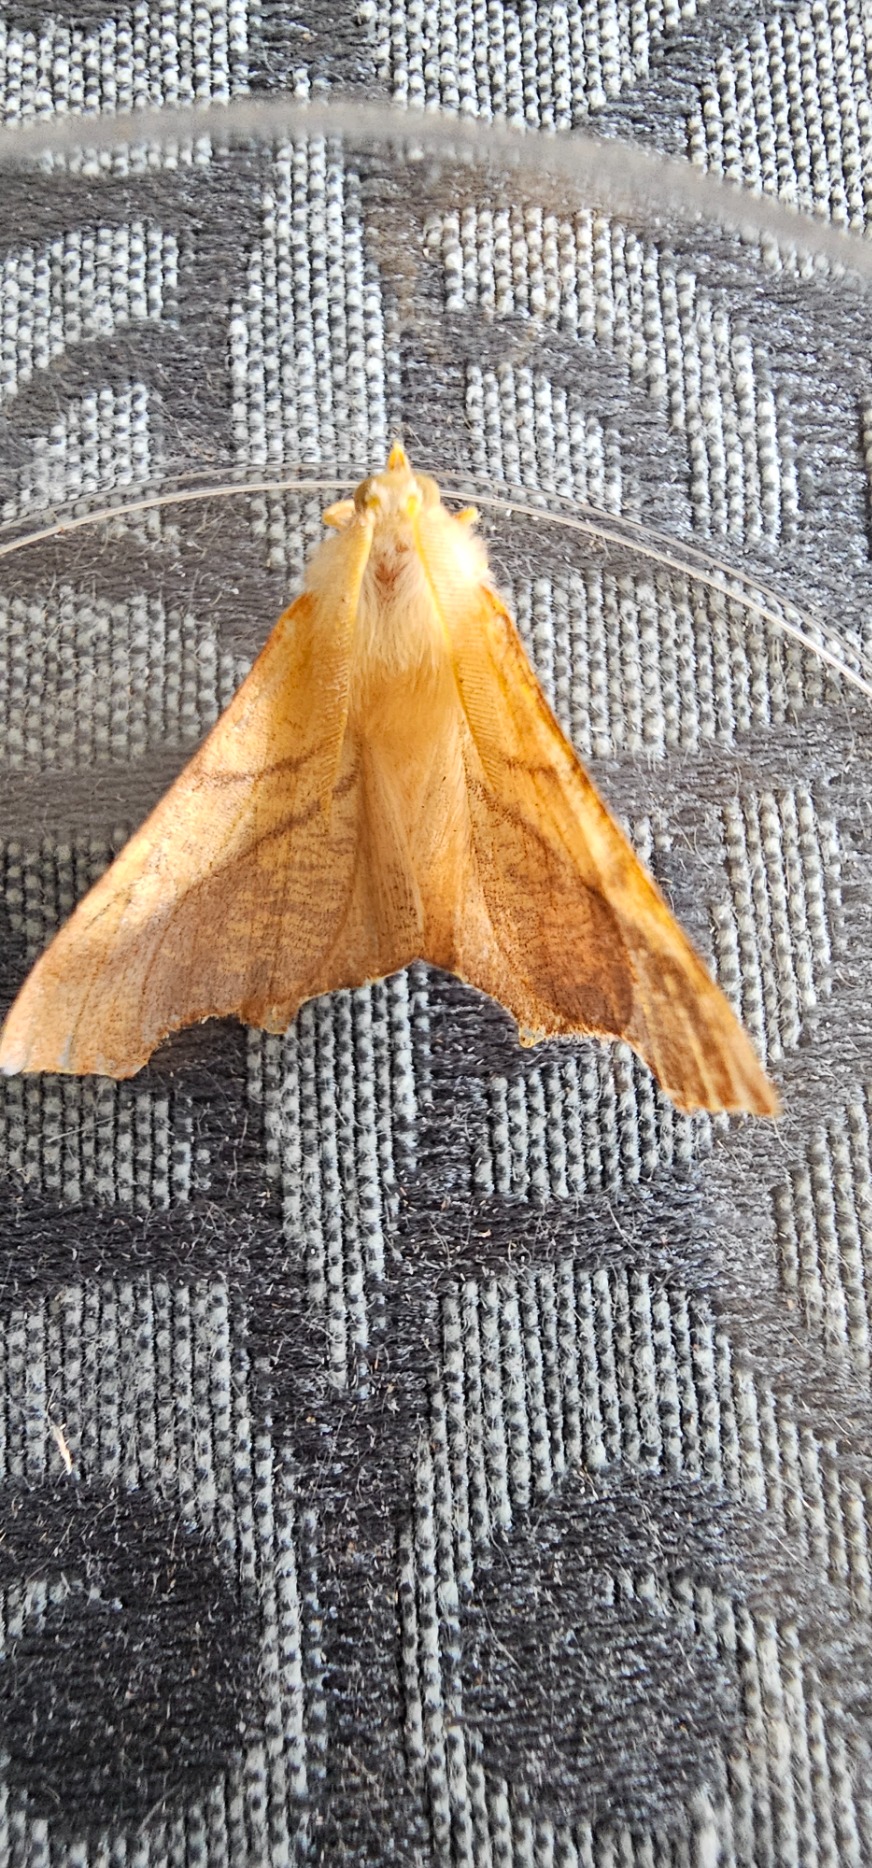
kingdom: Animalia
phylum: Arthropoda
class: Insecta
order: Lepidoptera
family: Geometridae
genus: Ennomos
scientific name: Ennomos fuscantaria
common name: Asketandmåler
